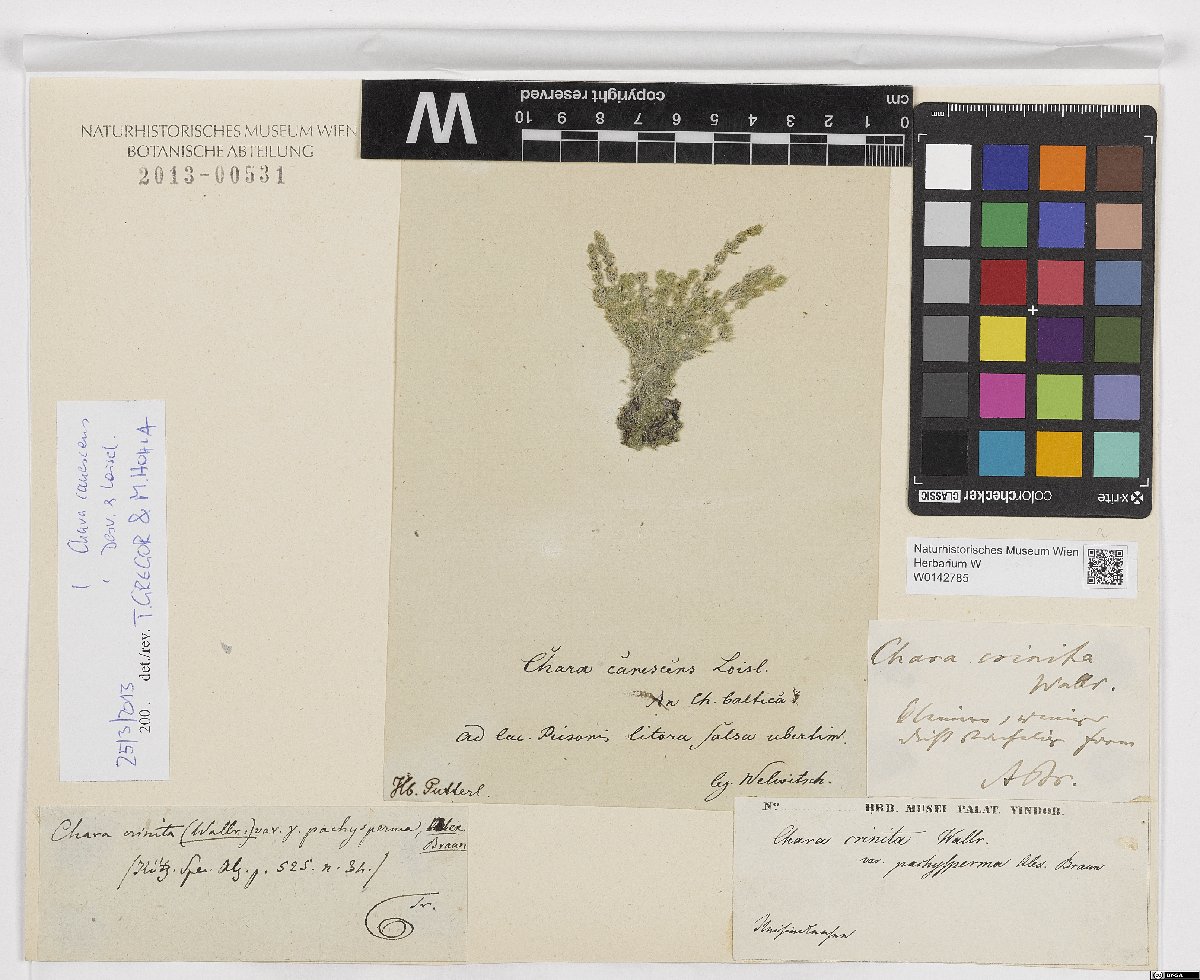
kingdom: Plantae
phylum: Charophyta
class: Charophyceae
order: Charales
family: Characeae
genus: Chara
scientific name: Chara canescens
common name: Bearded stonewort
